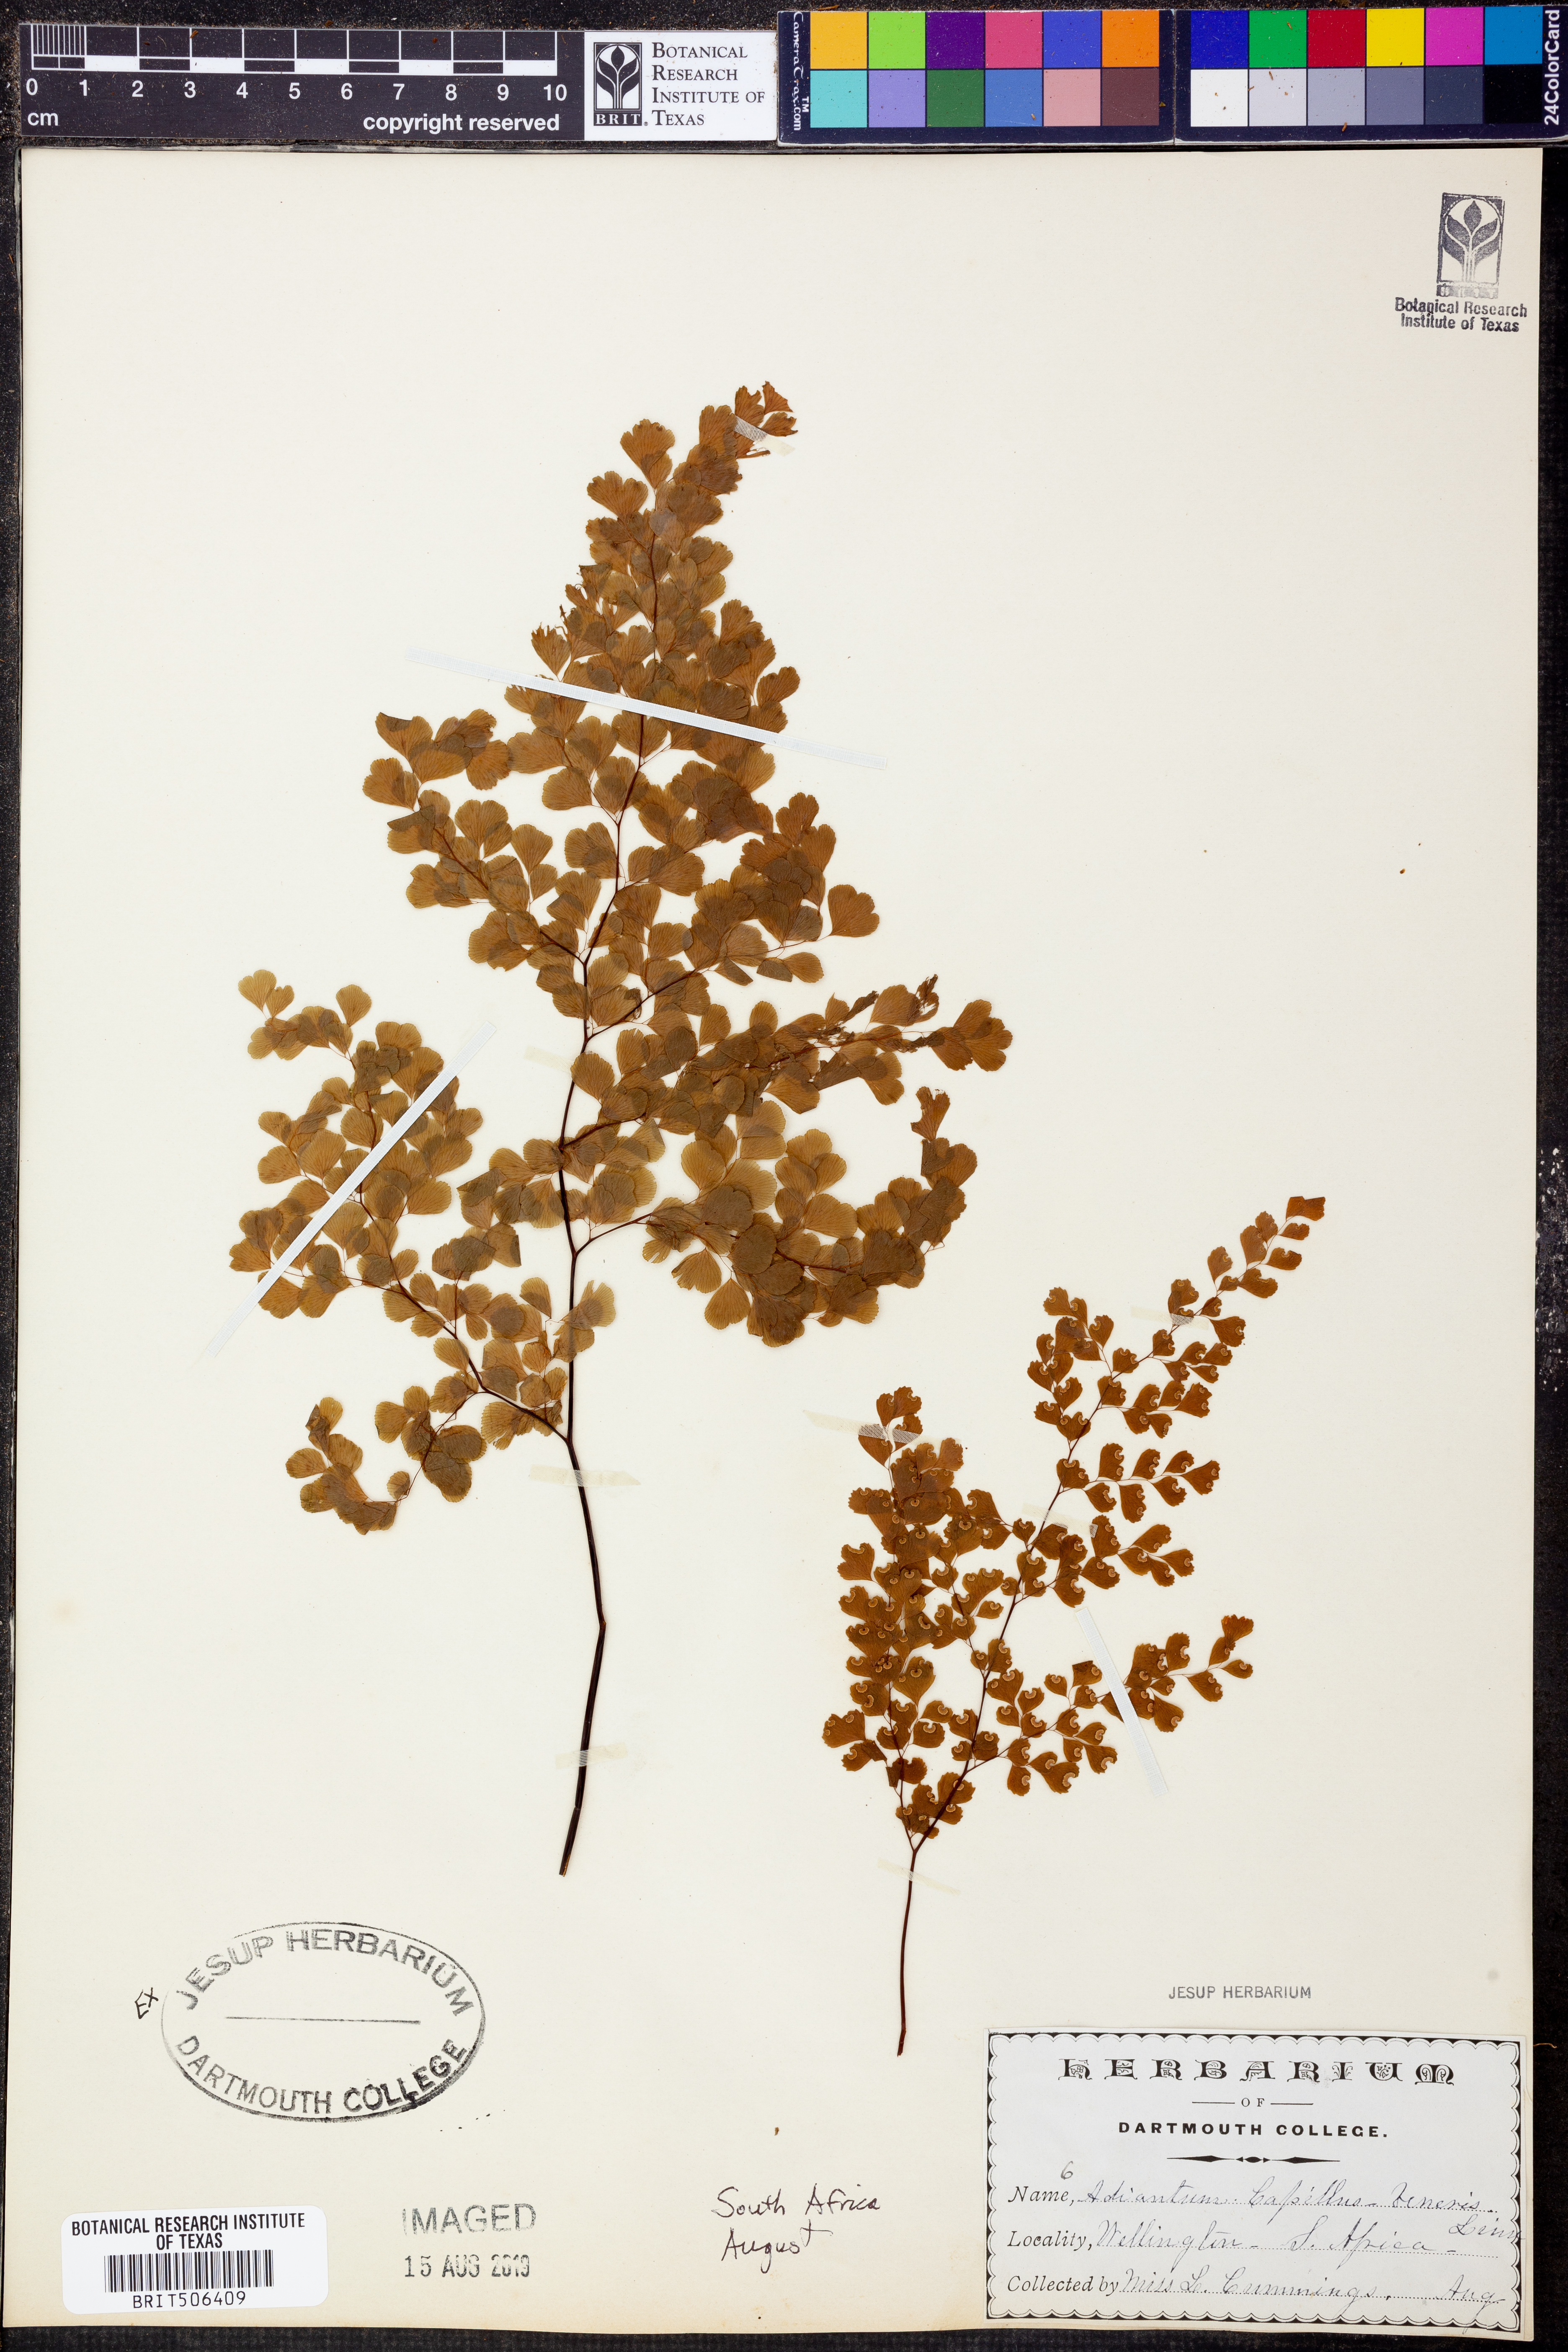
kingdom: Plantae
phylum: Tracheophyta
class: Polypodiopsida
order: Polypodiales
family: Pteridaceae
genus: Adiantum
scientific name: Adiantum capillus-veneris
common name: Maidenhair fern
